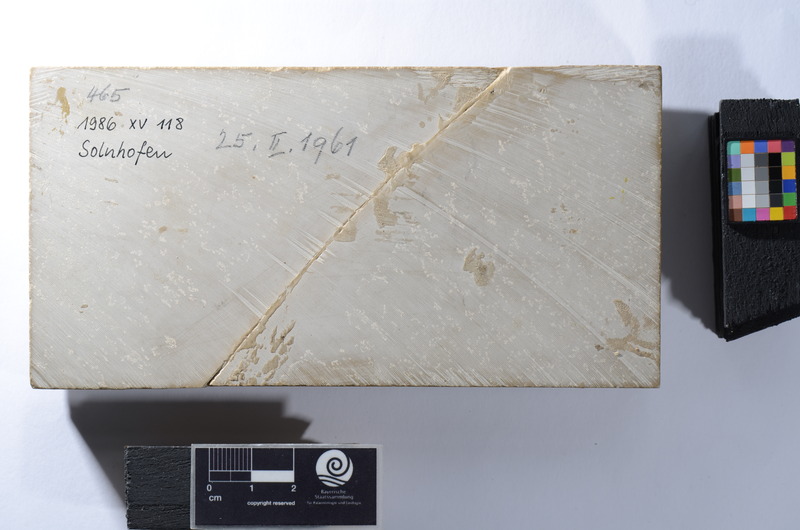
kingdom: Animalia
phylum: Chordata
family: Macrosemiidae
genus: Macrosemius
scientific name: Macrosemius rostratus
